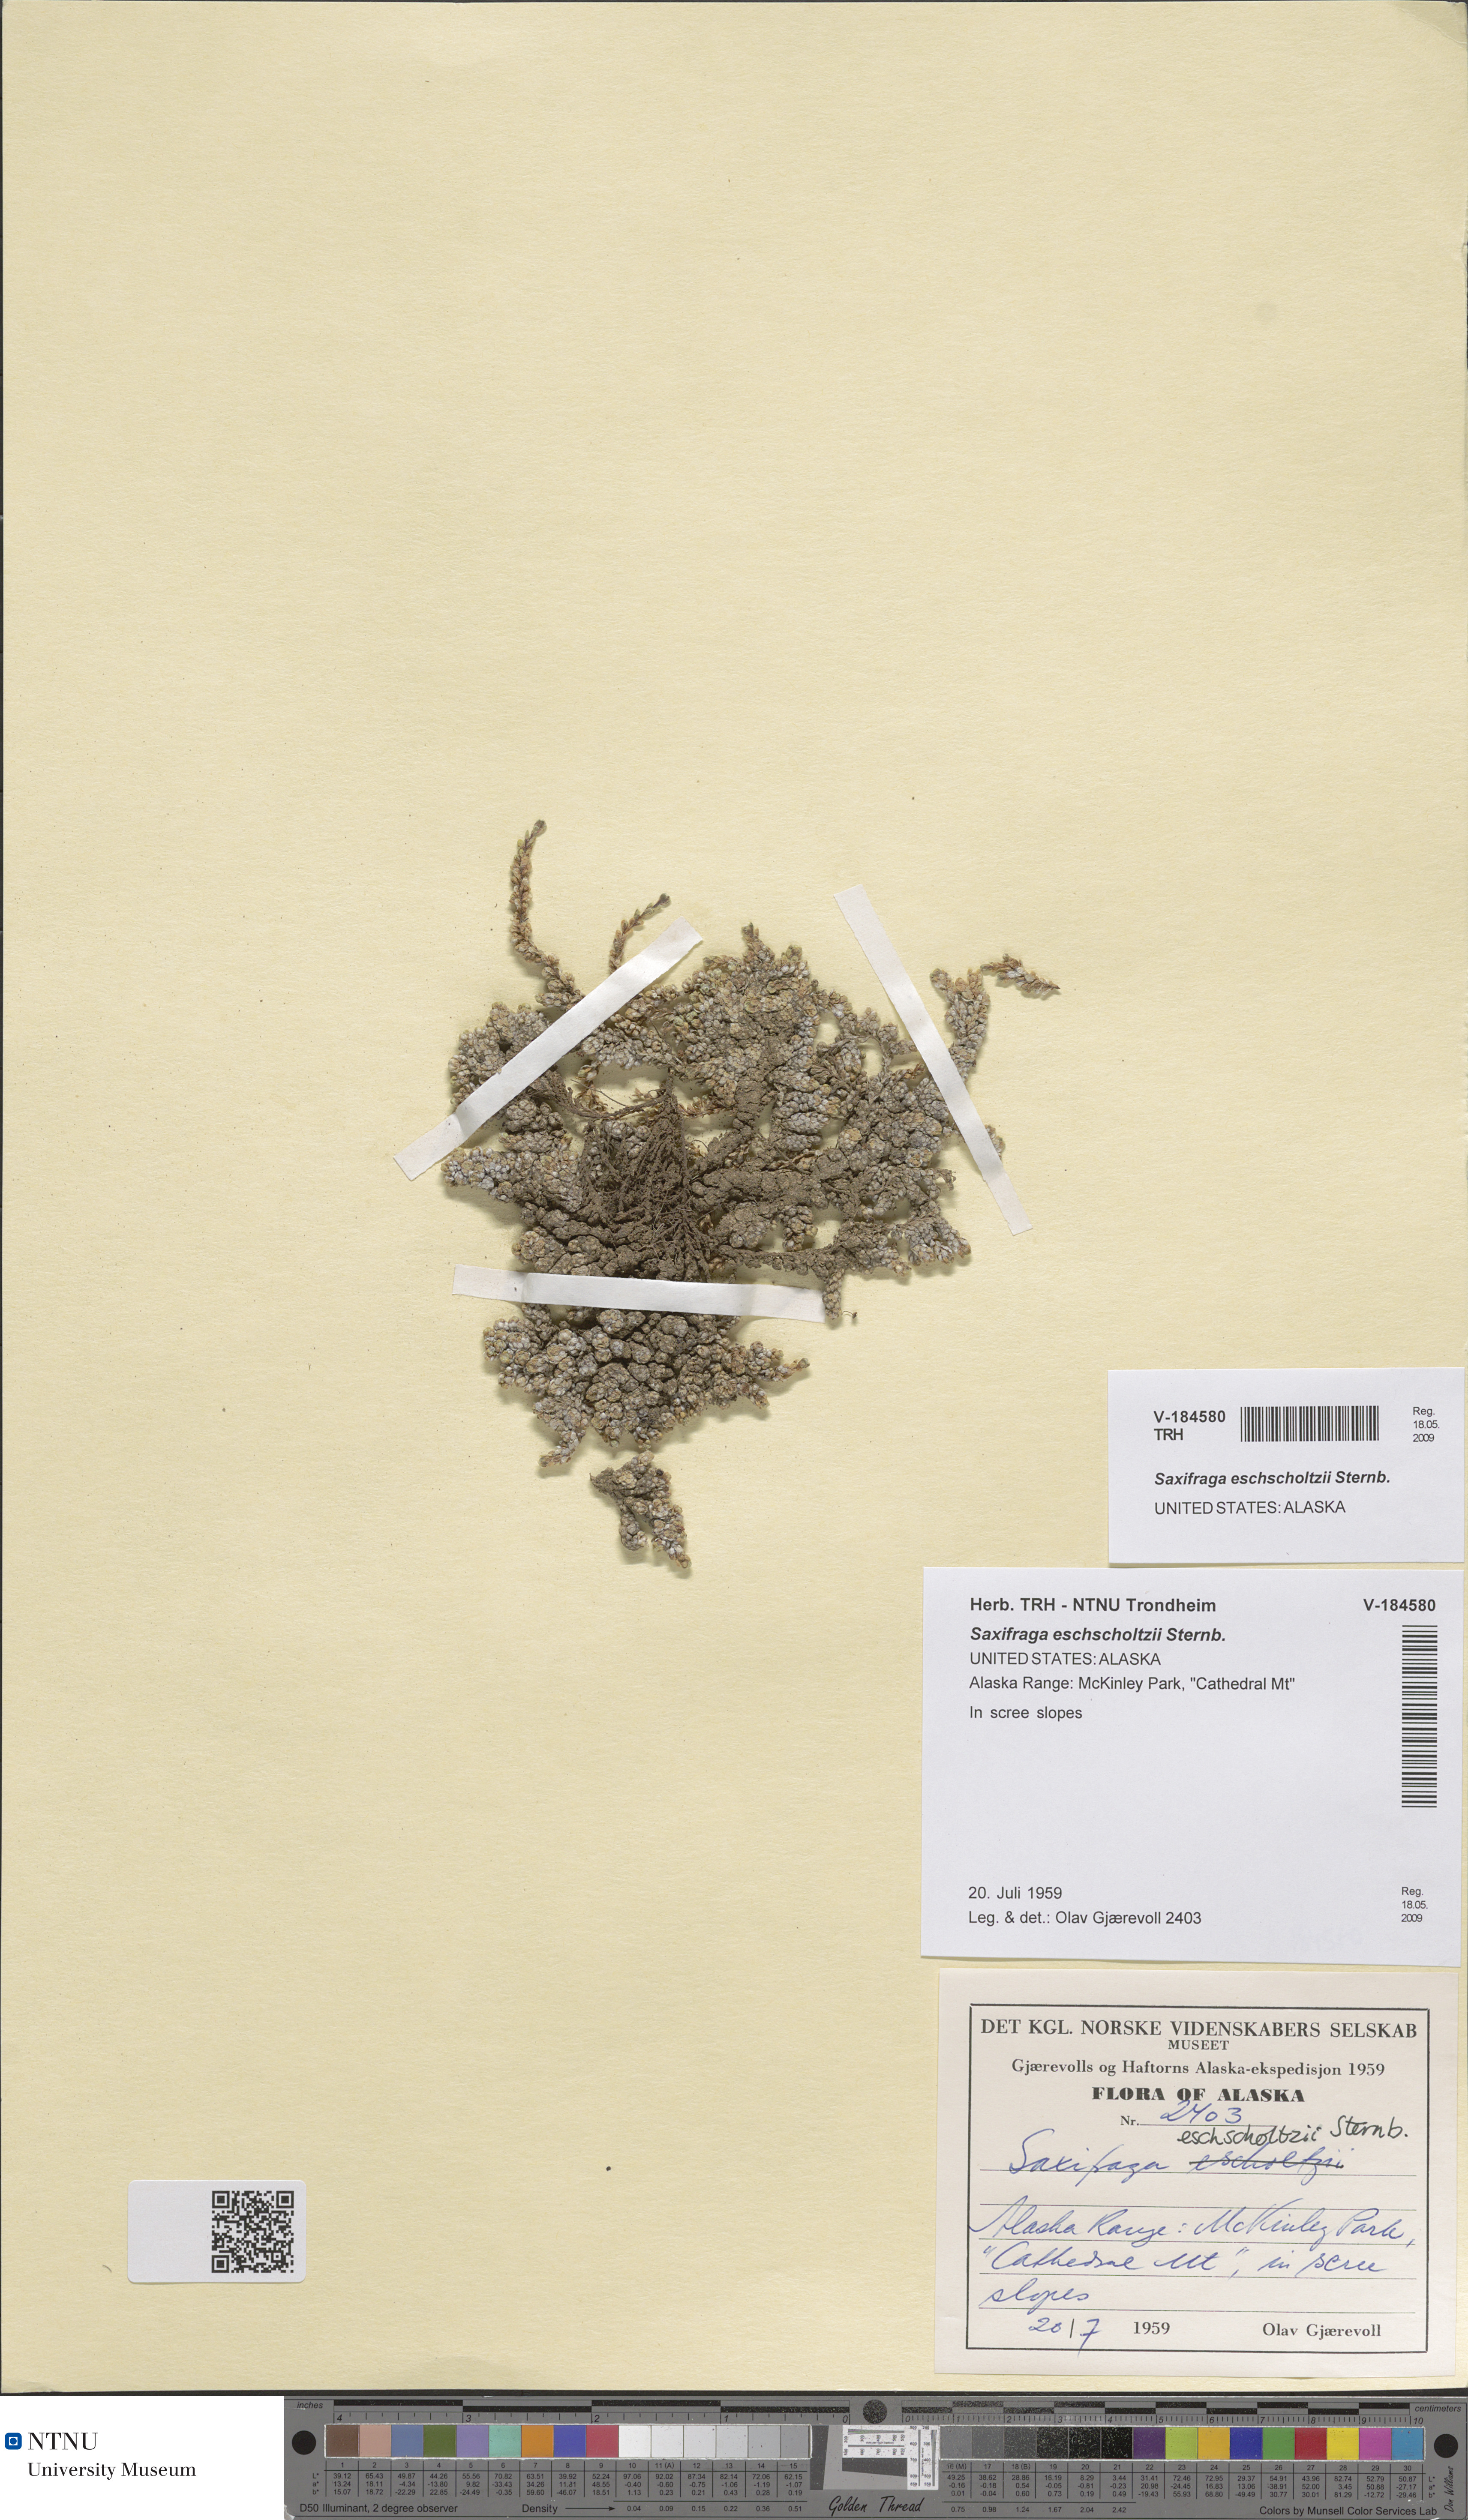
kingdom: Plantae
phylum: Tracheophyta
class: Magnoliopsida
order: Saxifragales
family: Saxifragaceae
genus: Saxifraga
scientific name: Saxifraga eschscholtzii
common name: Eschscholtz's saxifrage
